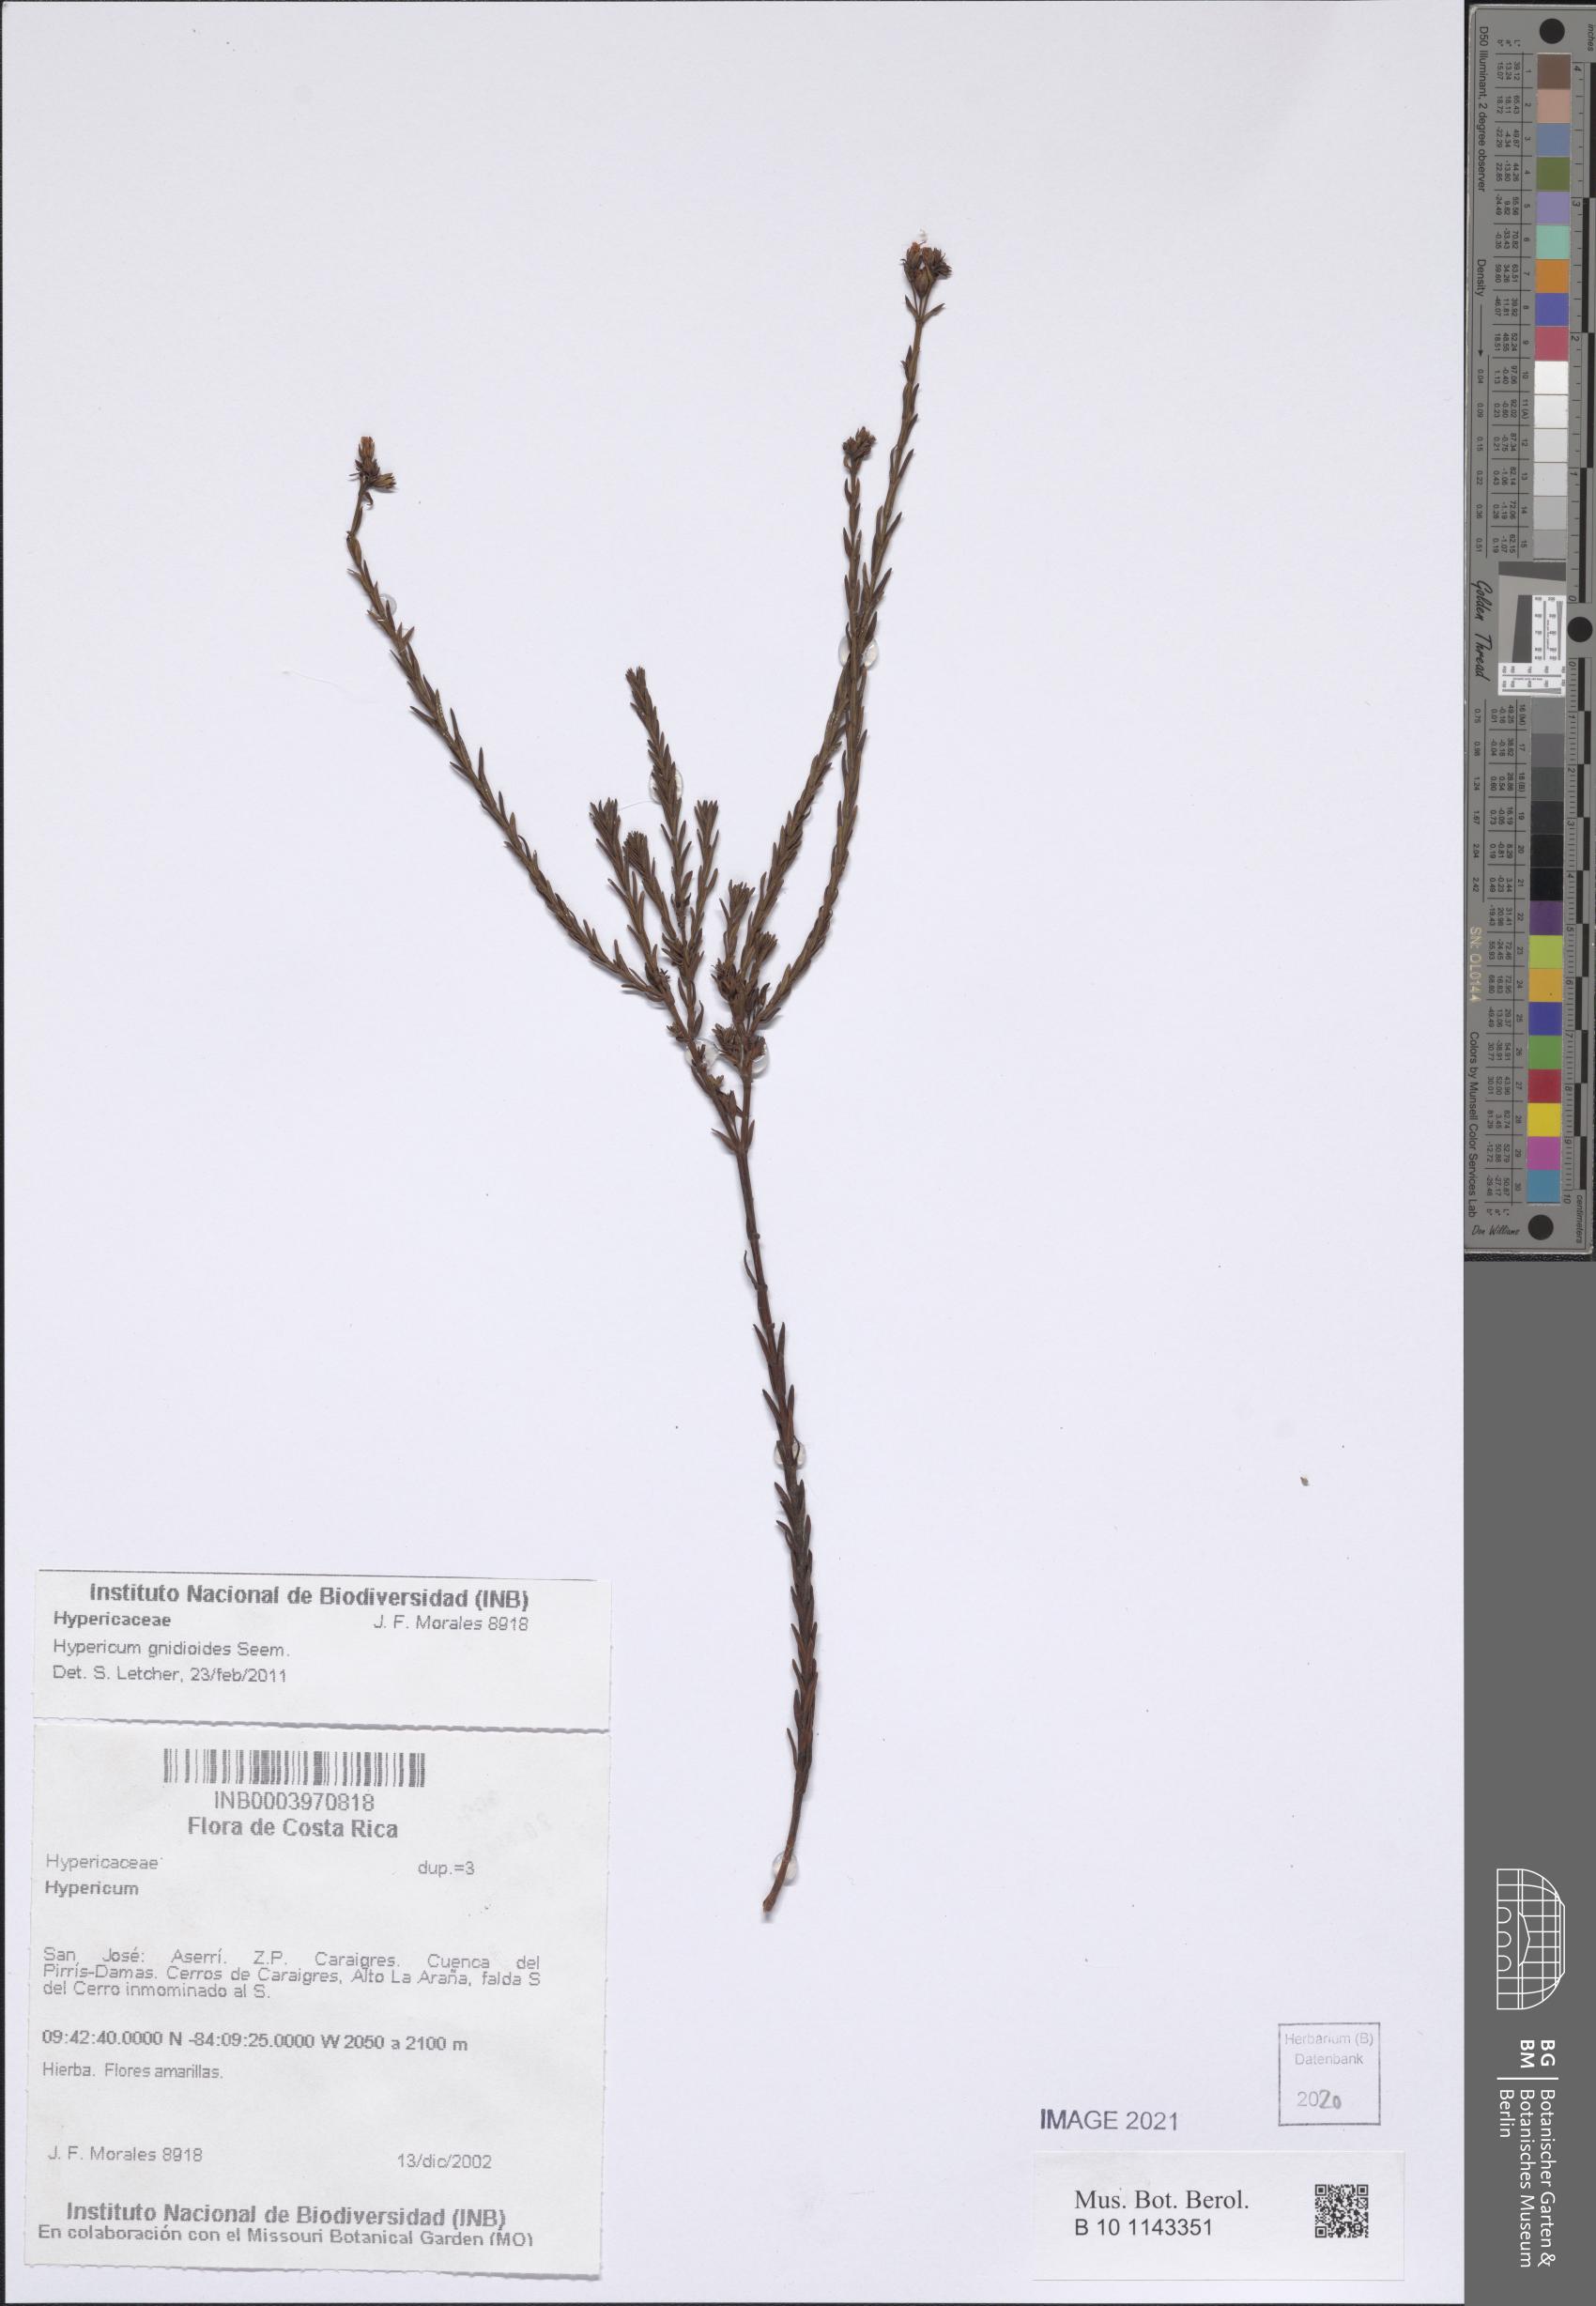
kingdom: Plantae
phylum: Tracheophyta
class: Magnoliopsida
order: Malpighiales
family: Hypericaceae
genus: Hypericum
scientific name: Hypericum gnidioides
